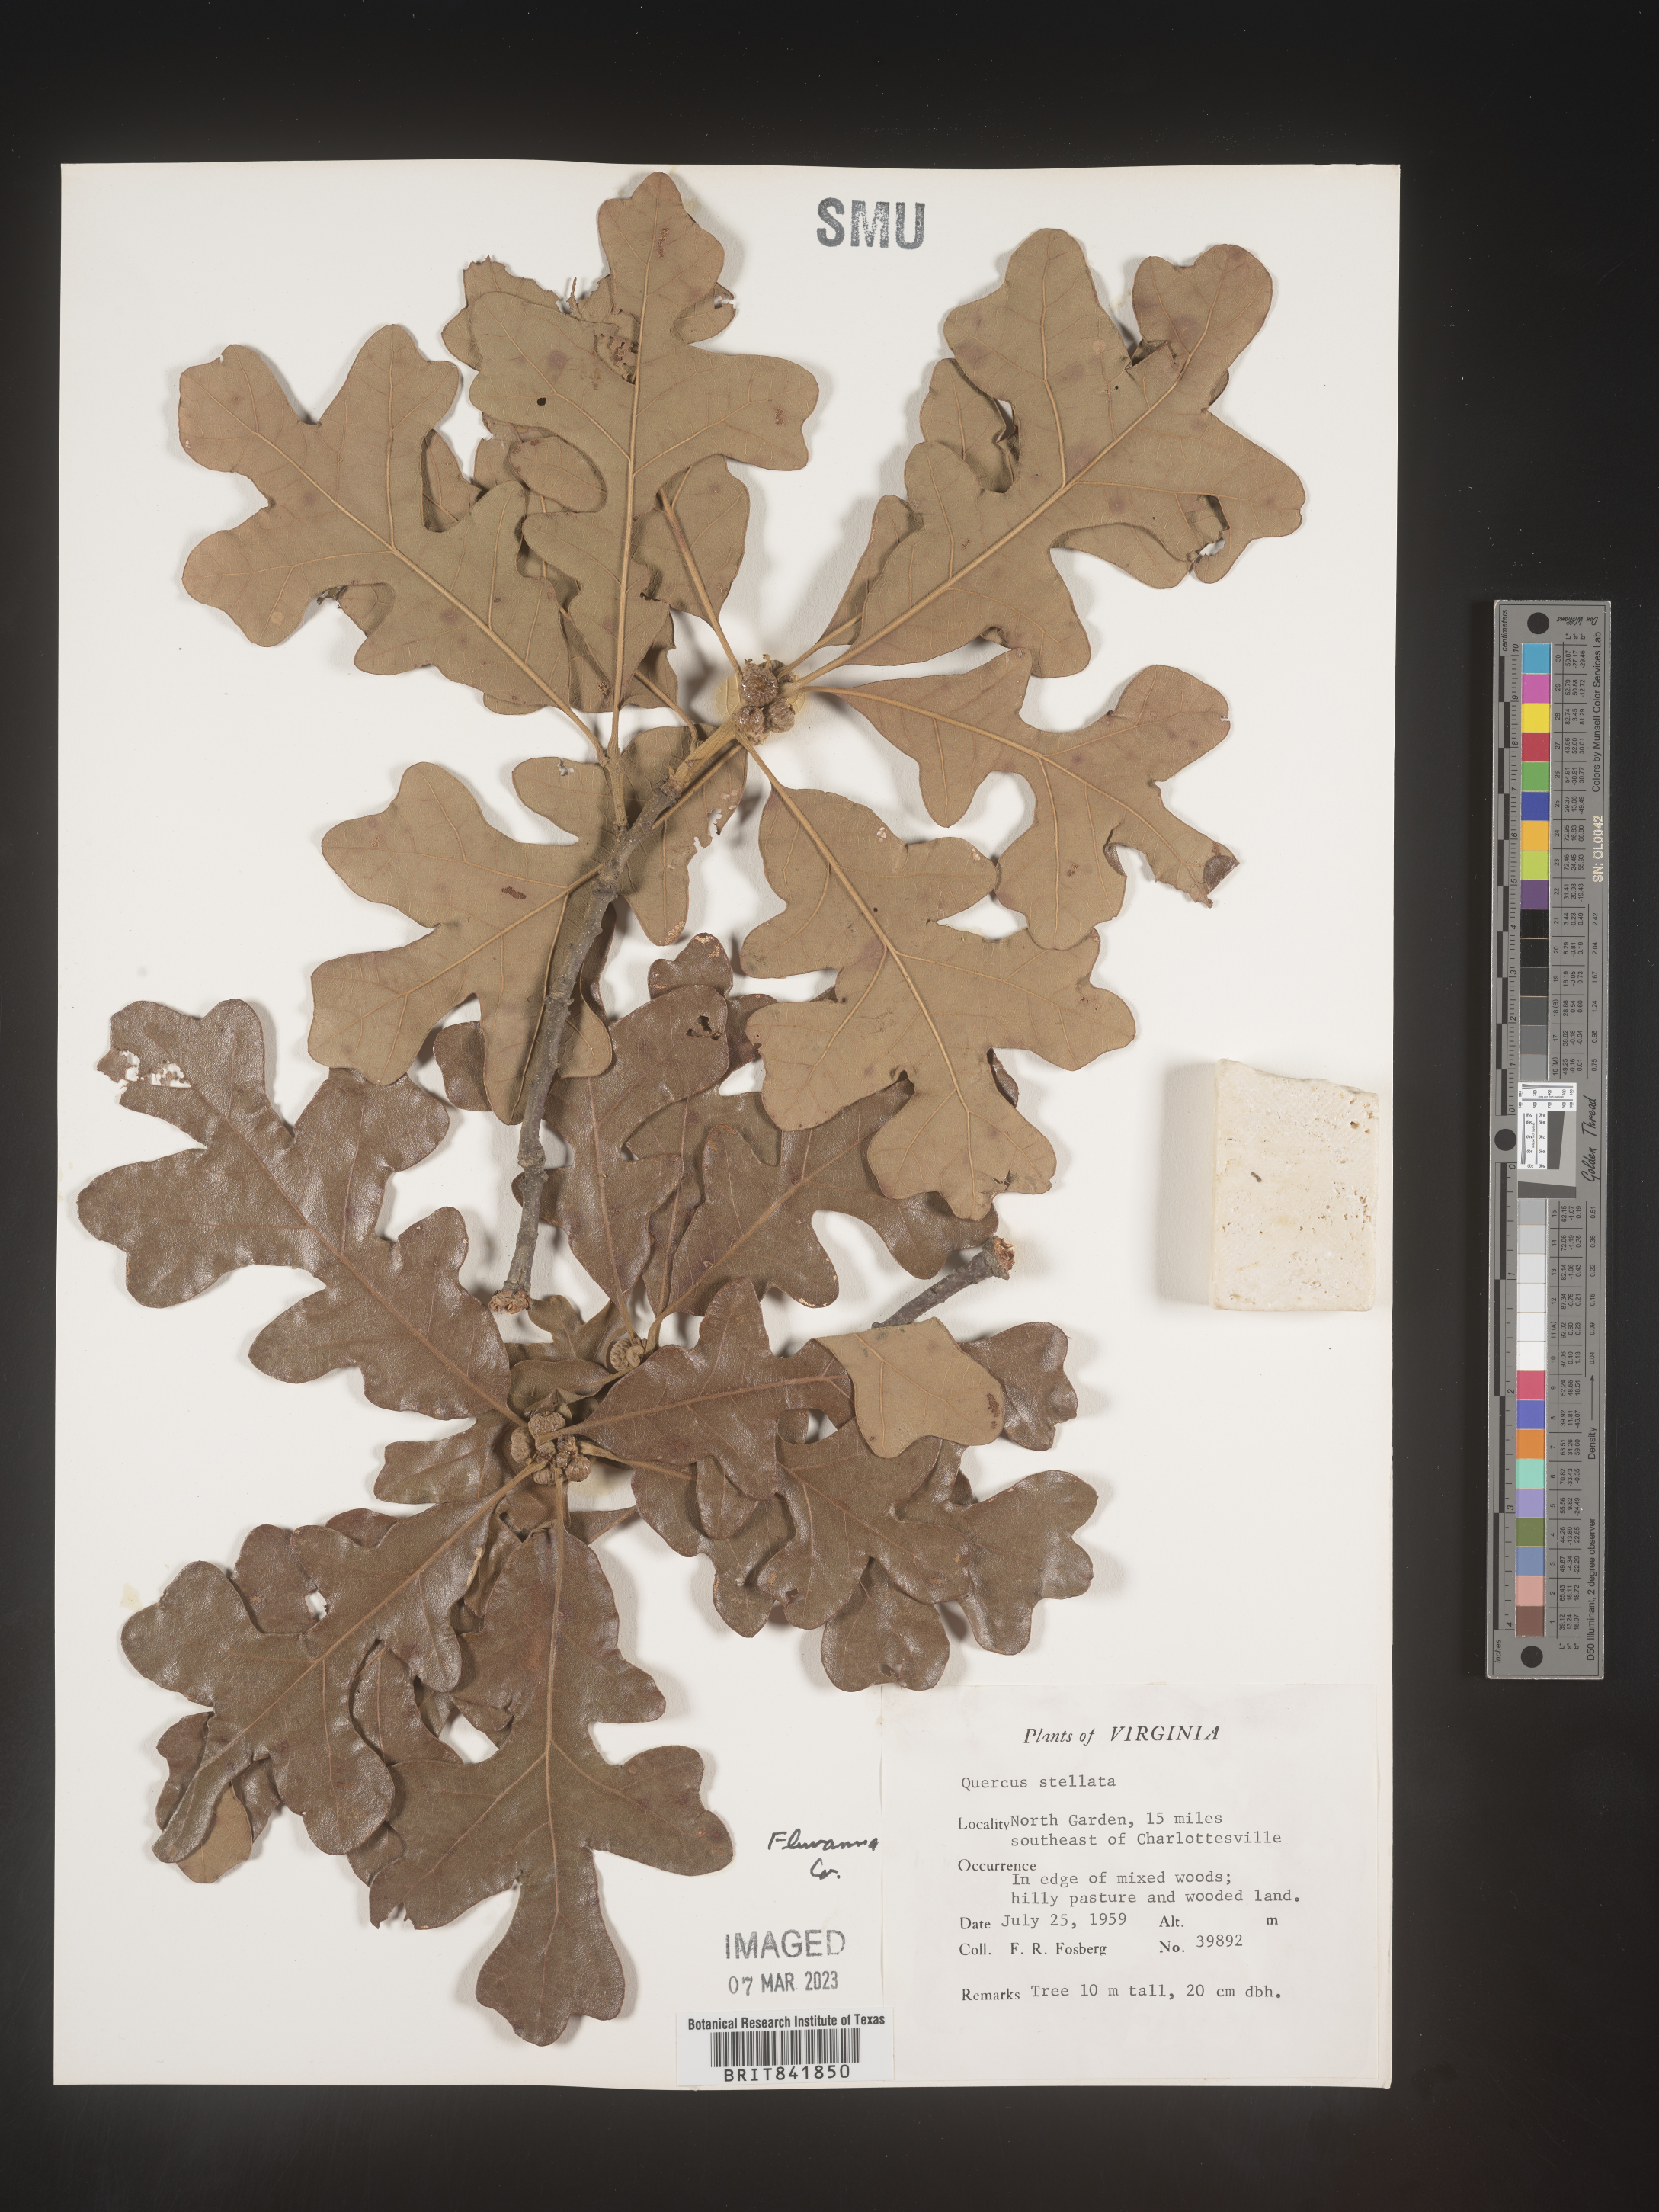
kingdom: Plantae
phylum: Tracheophyta
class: Magnoliopsida
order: Fagales
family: Fagaceae
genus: Quercus
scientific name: Quercus stellata
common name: Post oak
